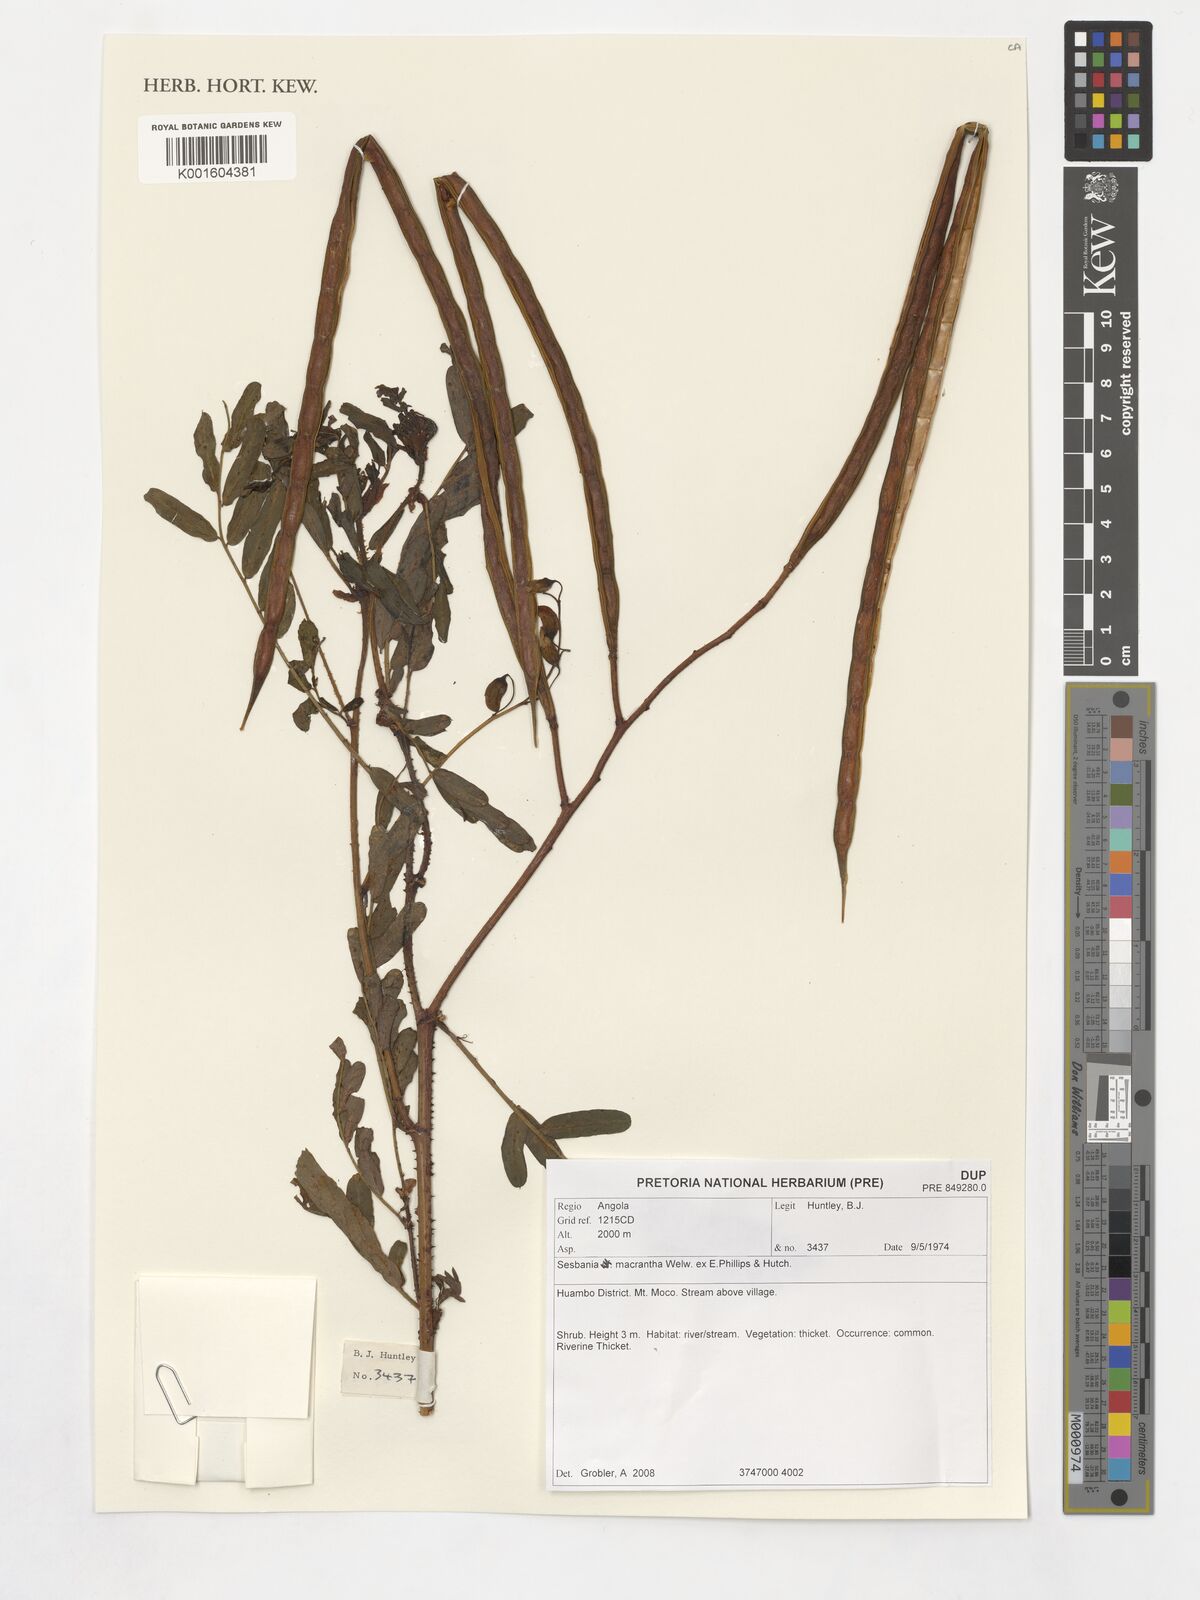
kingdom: Plantae
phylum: Tracheophyta
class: Magnoliopsida
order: Fabales
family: Fabaceae
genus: Sesbania
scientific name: Sesbania macrantha
